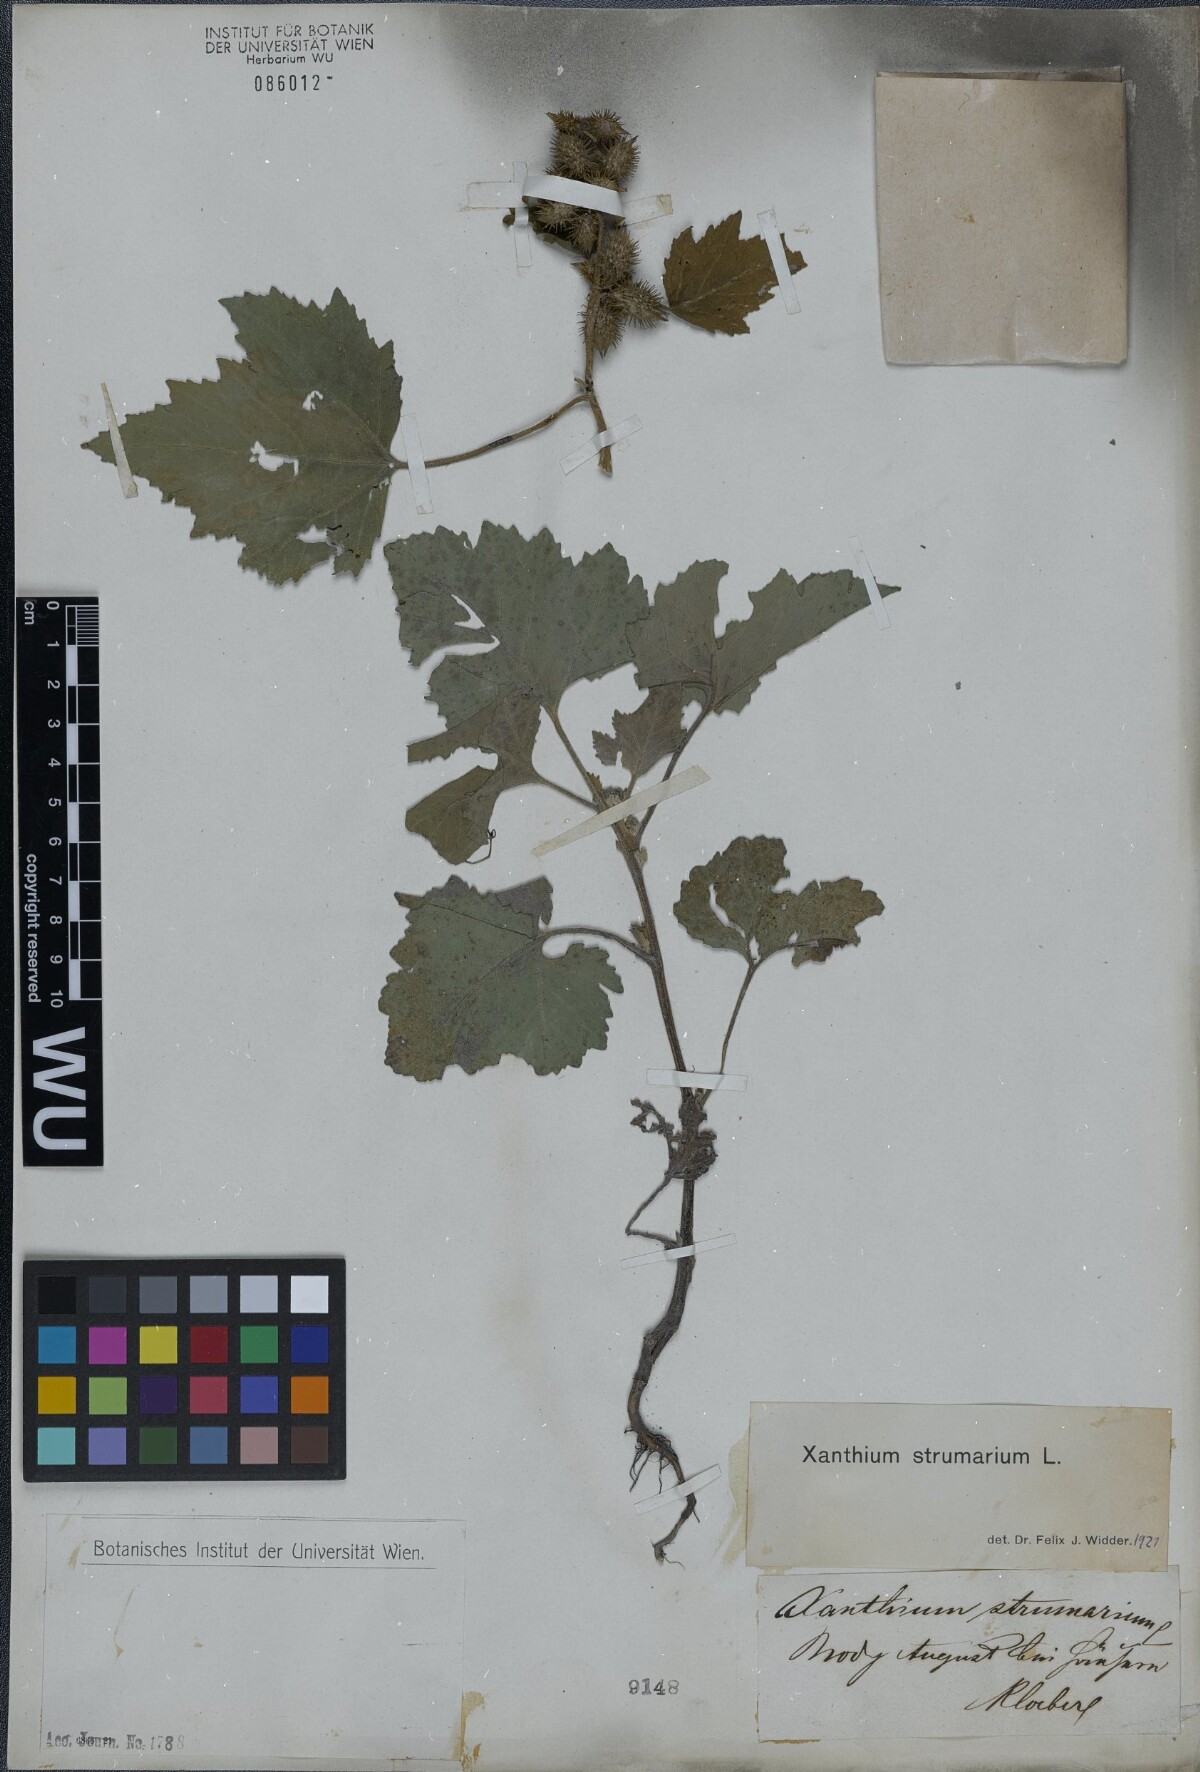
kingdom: Plantae
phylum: Tracheophyta
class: Magnoliopsida
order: Asterales
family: Asteraceae
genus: Xanthium
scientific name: Xanthium strumarium
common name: Rough cocklebur
